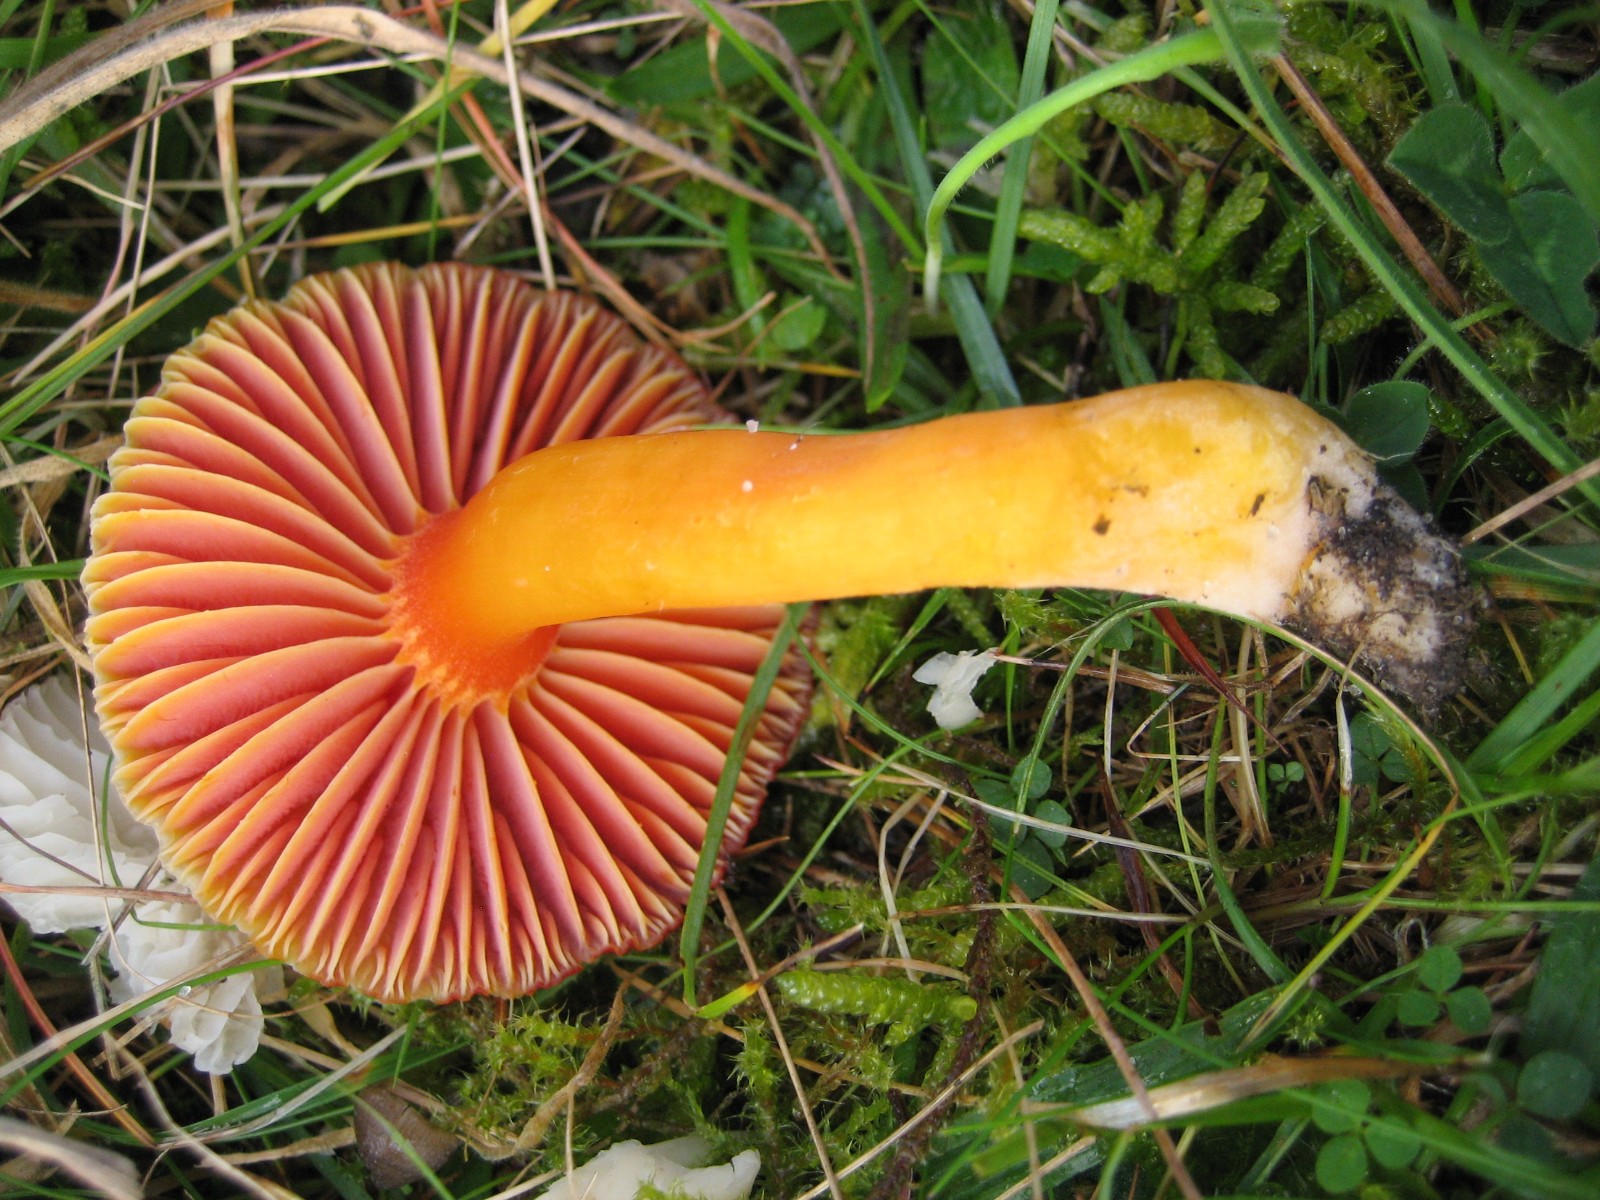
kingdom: Fungi
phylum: Basidiomycota
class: Agaricomycetes
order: Agaricales
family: Hygrophoraceae
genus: Hygrocybe
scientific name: Hygrocybe coccinea
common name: cinnober-vokshat
